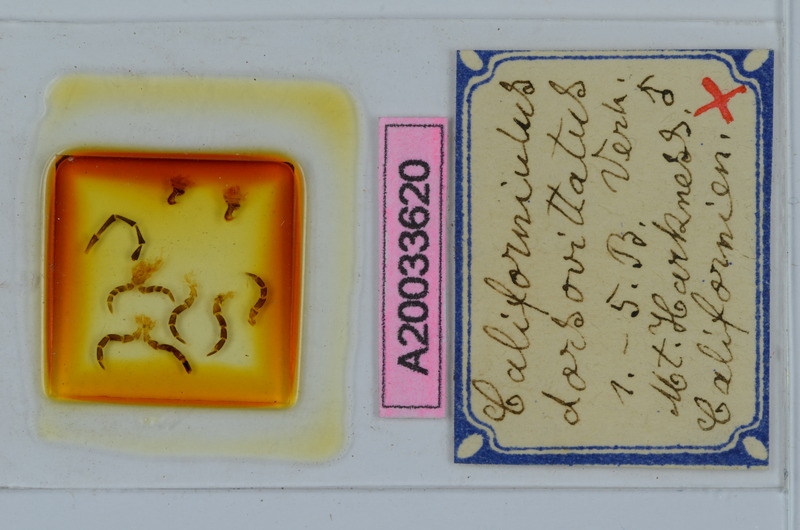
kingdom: Animalia
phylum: Arthropoda
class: Diplopoda
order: Julida
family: Paeromopodidae
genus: Californiulus
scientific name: Californiulus dorsovittatus
